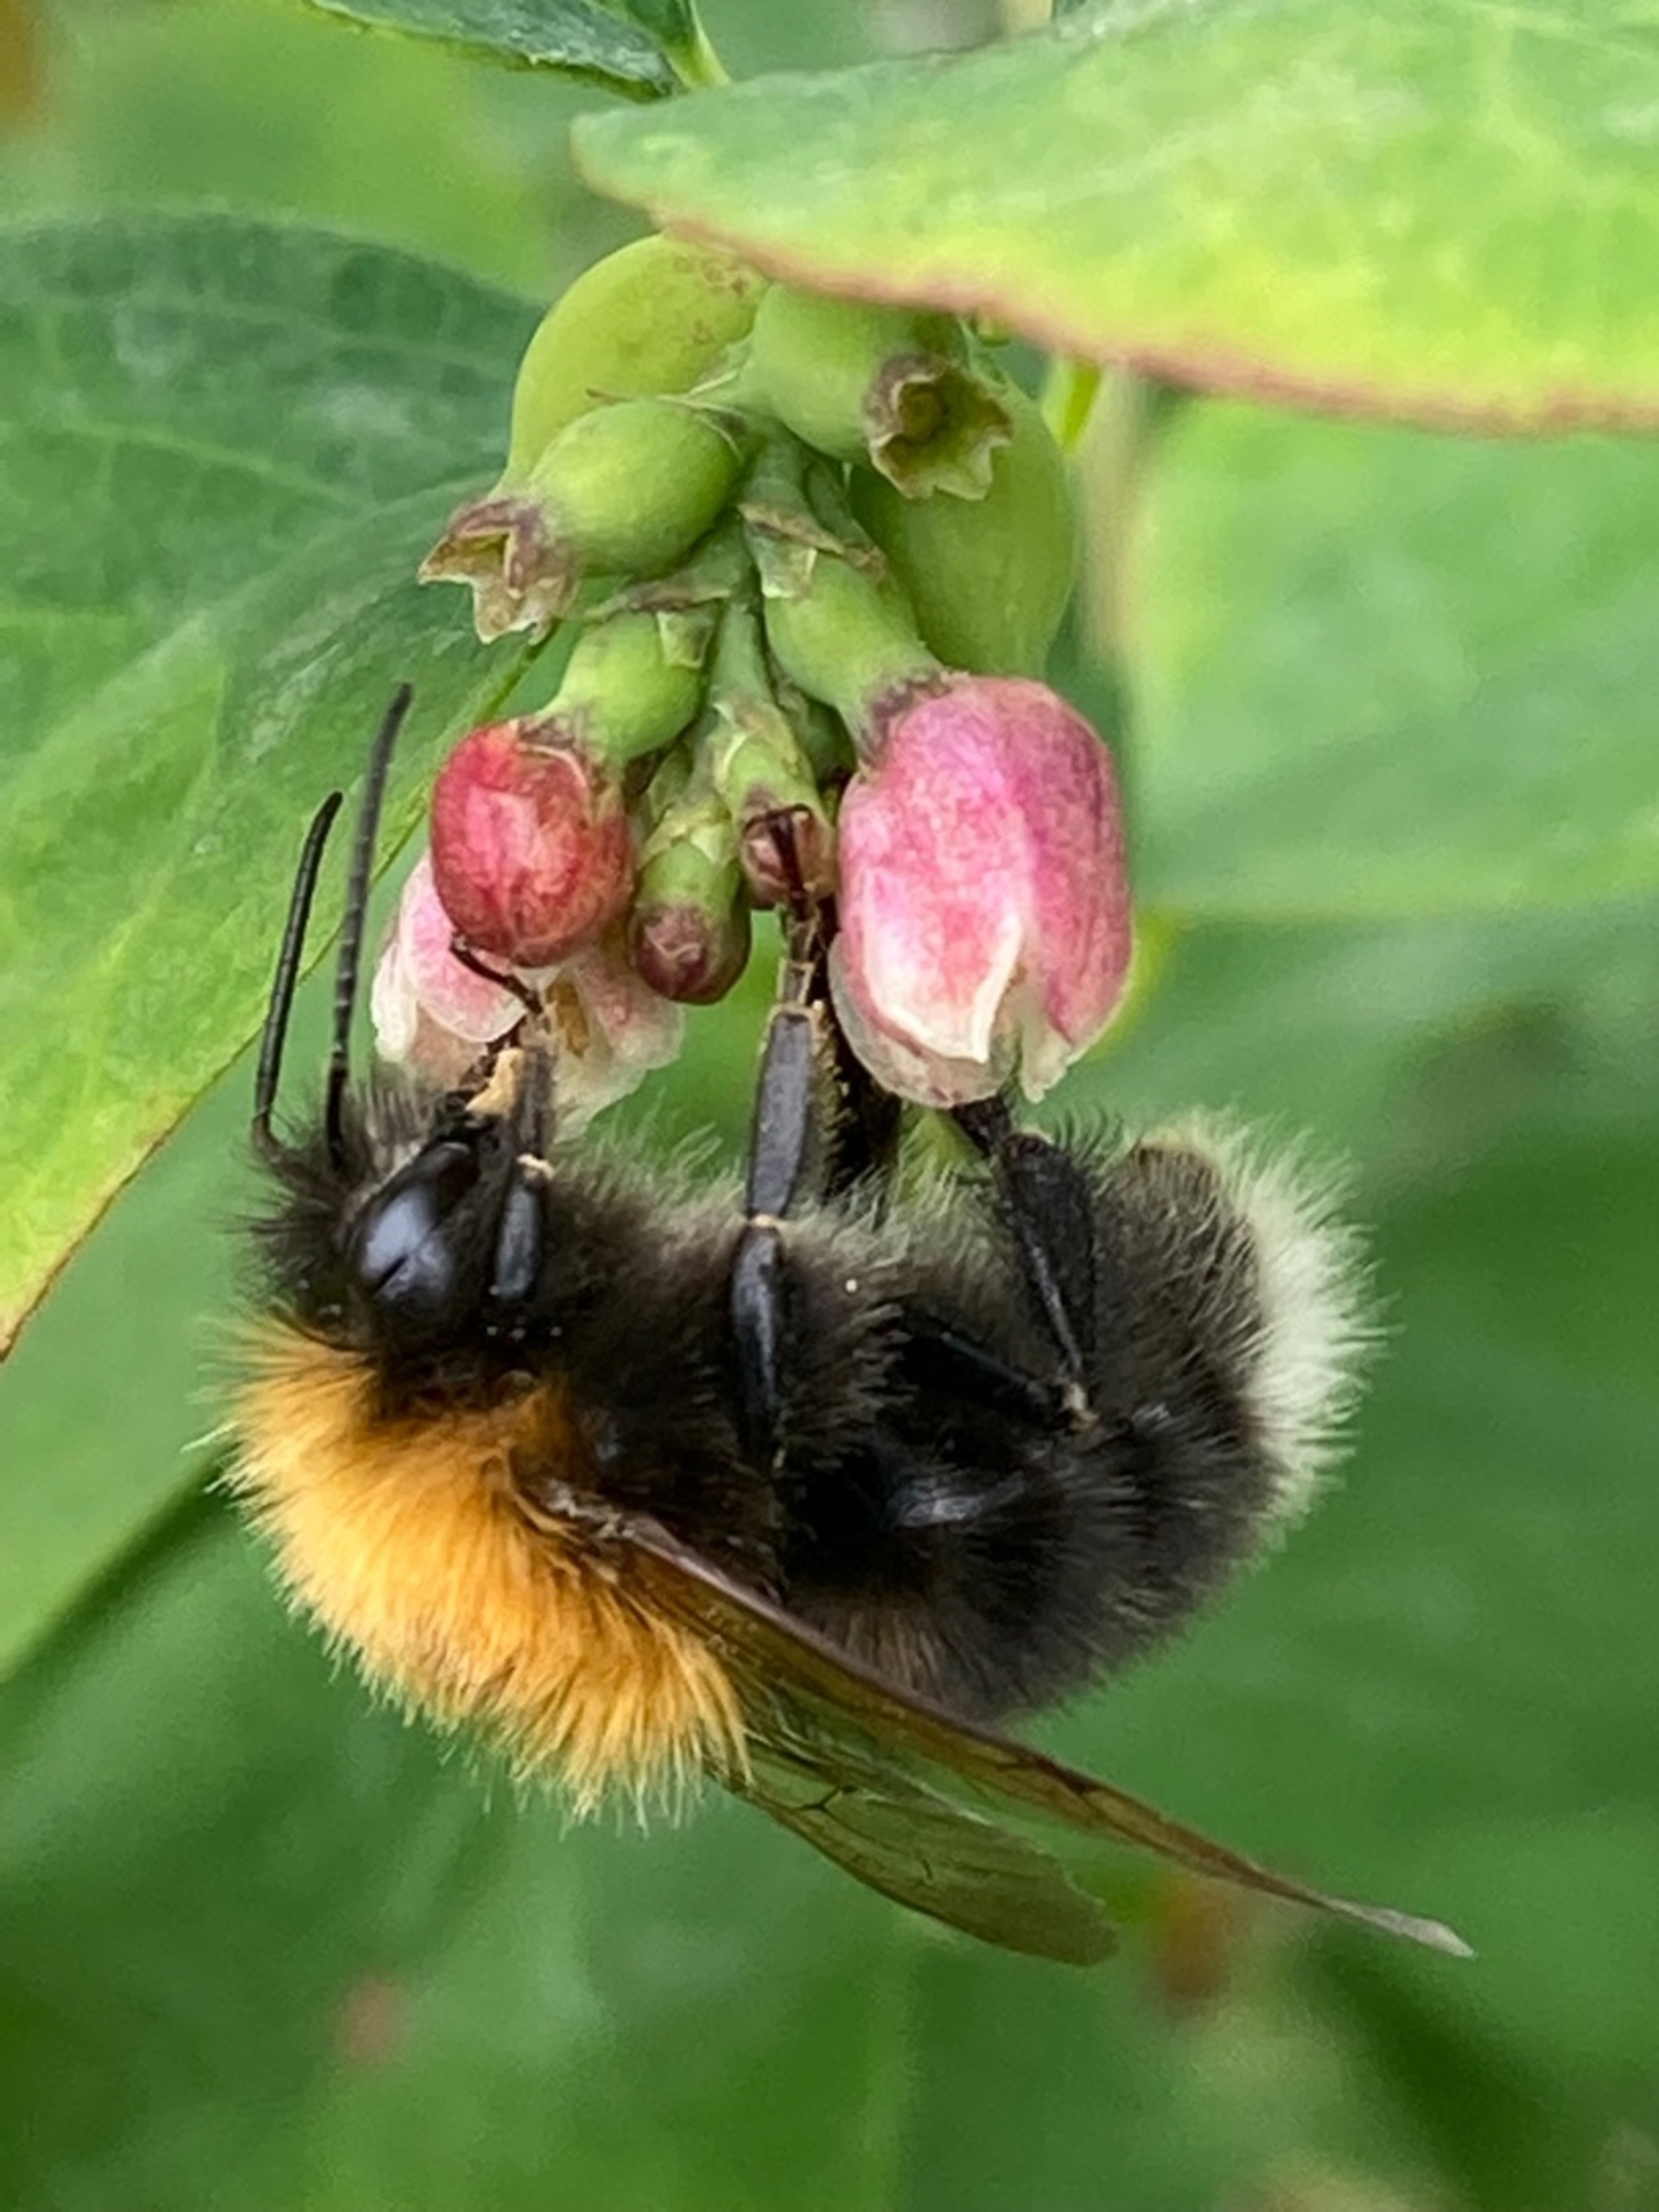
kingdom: Animalia
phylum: Arthropoda
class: Insecta
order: Hymenoptera
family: Apidae
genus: Bombus
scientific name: Bombus hypnorum
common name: Hushumle
